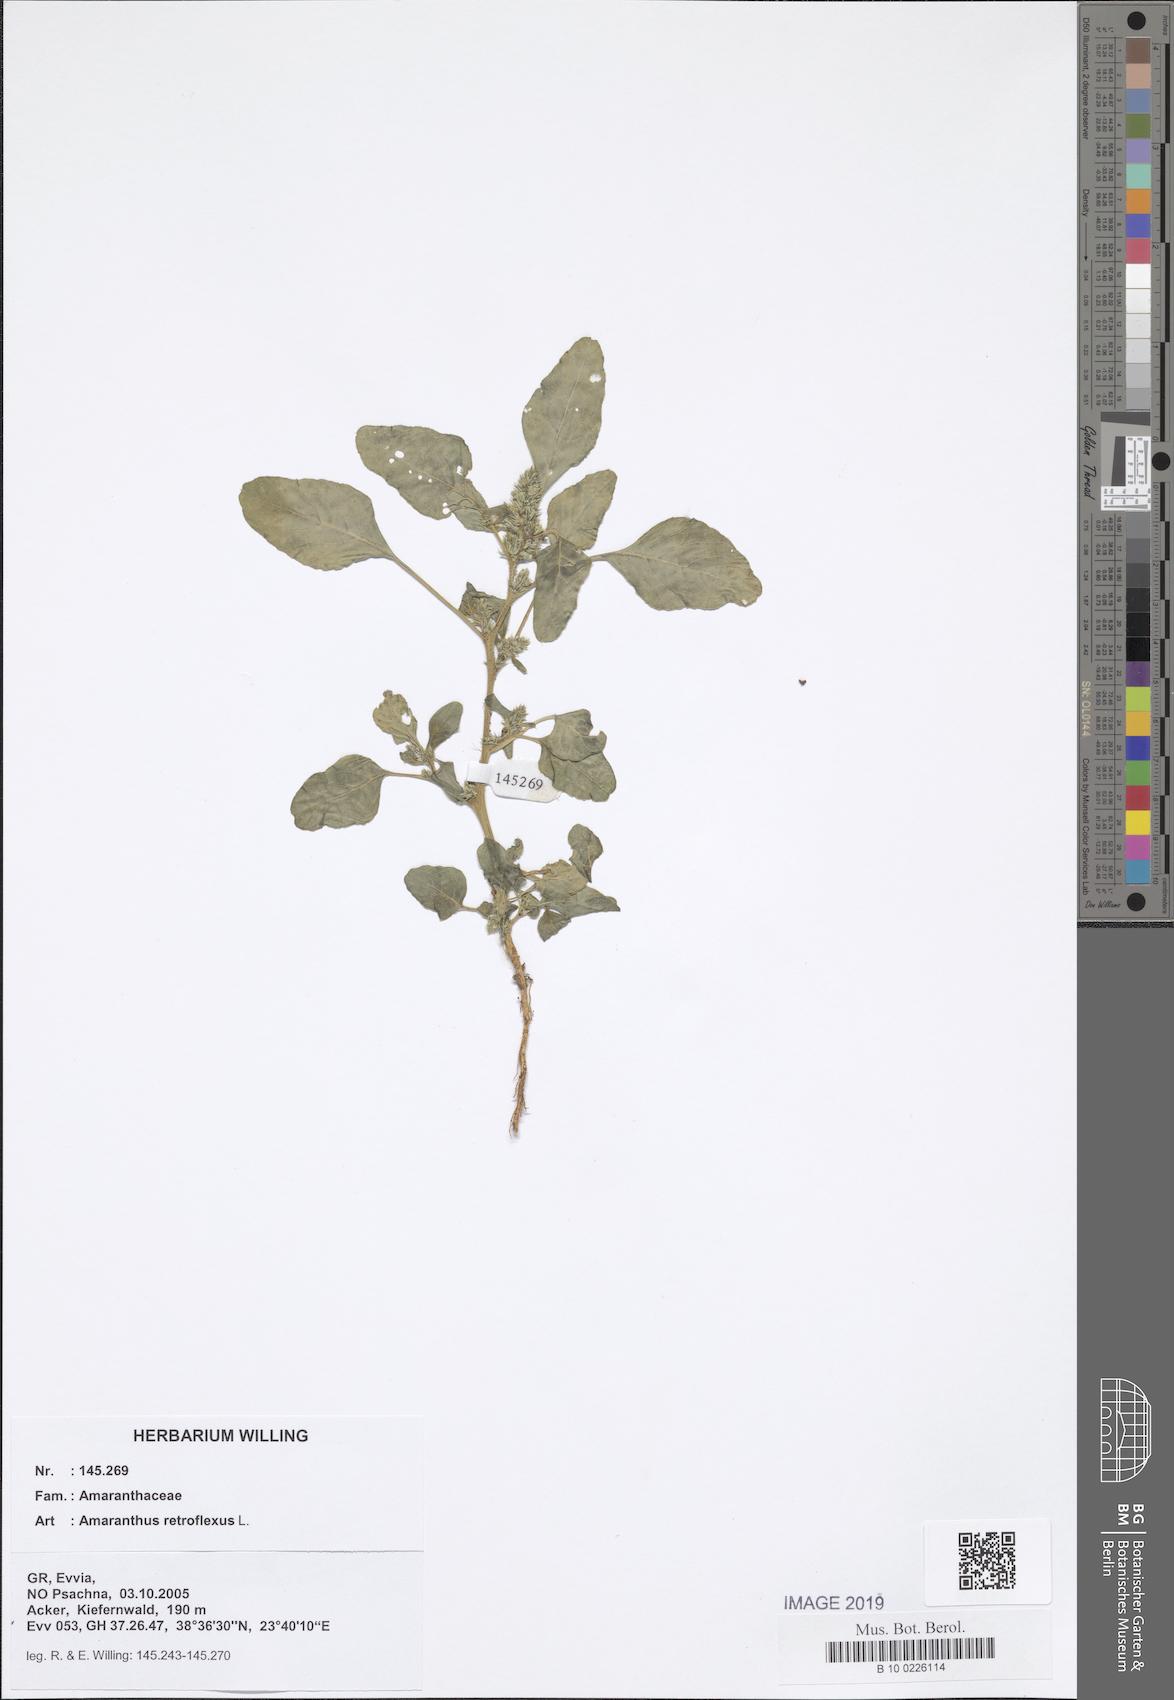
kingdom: Plantae
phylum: Tracheophyta
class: Magnoliopsida
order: Caryophyllales
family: Amaranthaceae
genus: Amaranthus
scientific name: Amaranthus retroflexus
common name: Redroot amaranth
